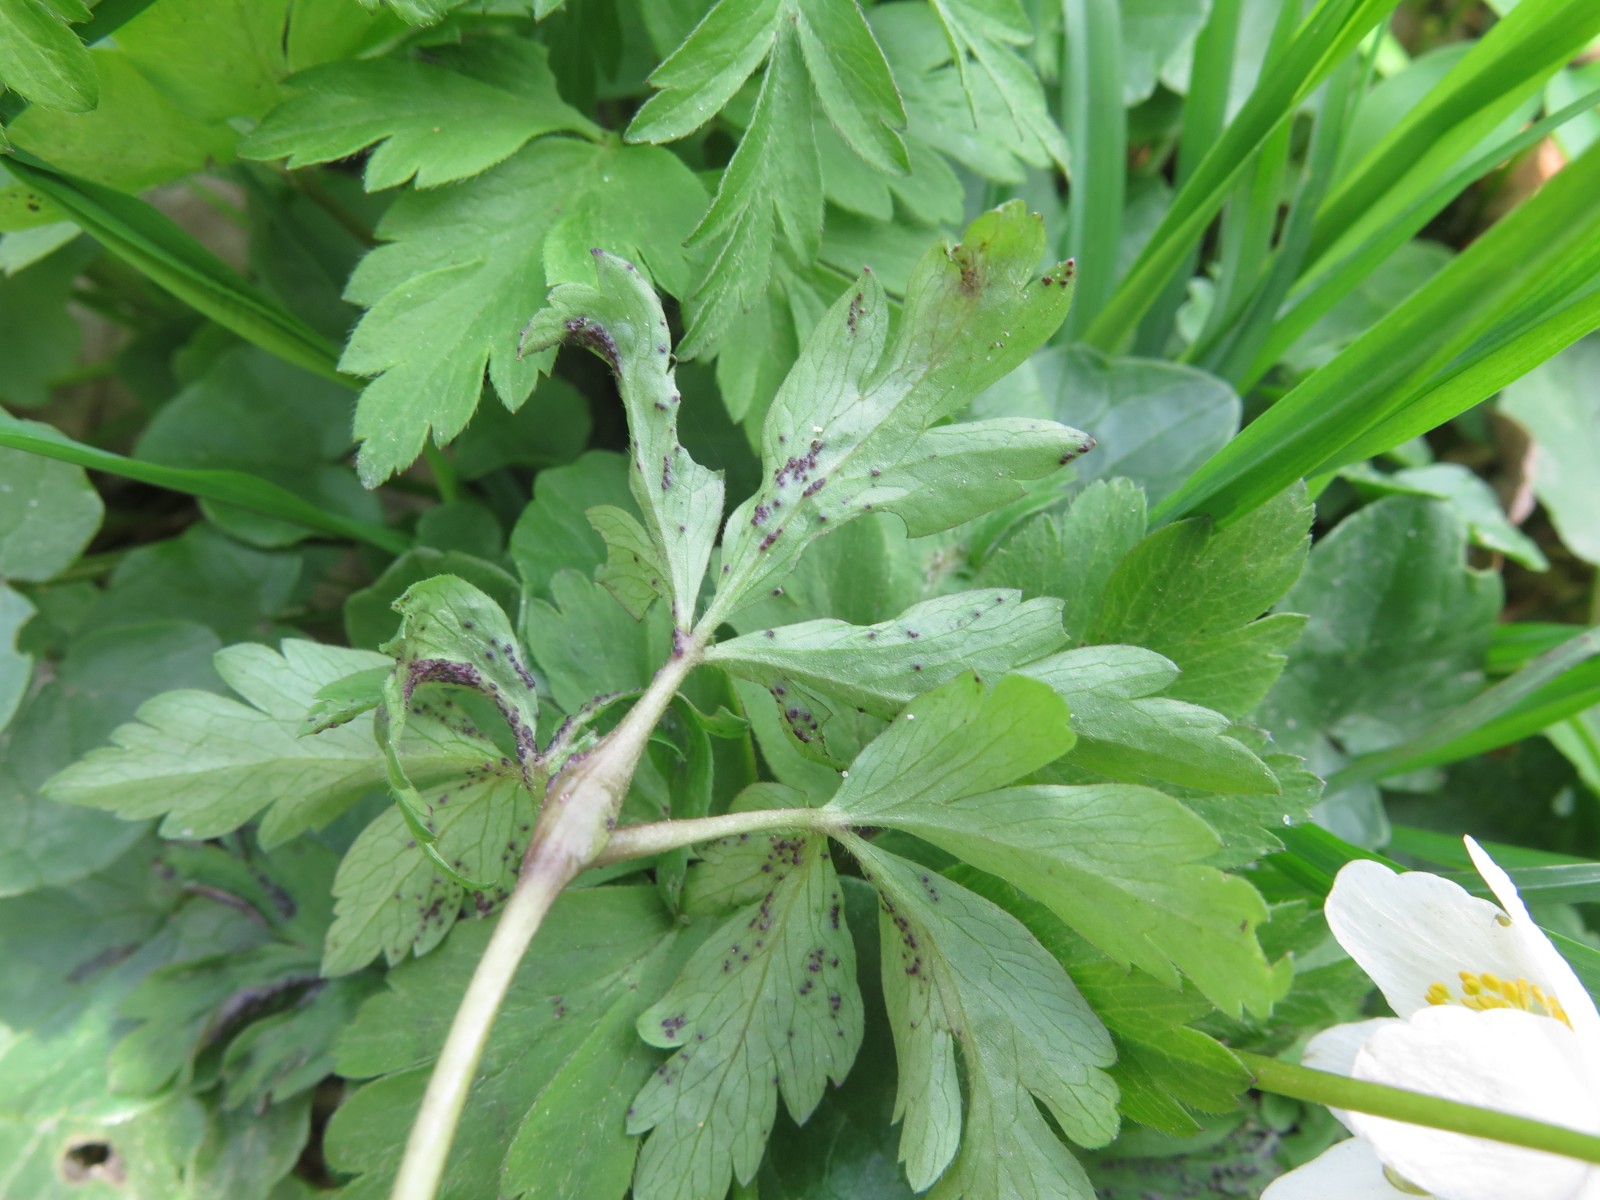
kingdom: Fungi
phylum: Chytridiomycota
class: Chytridiomycetes
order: Chytridiales
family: Synchytriaceae
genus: Synchytrium
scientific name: Synchytrium anemones
